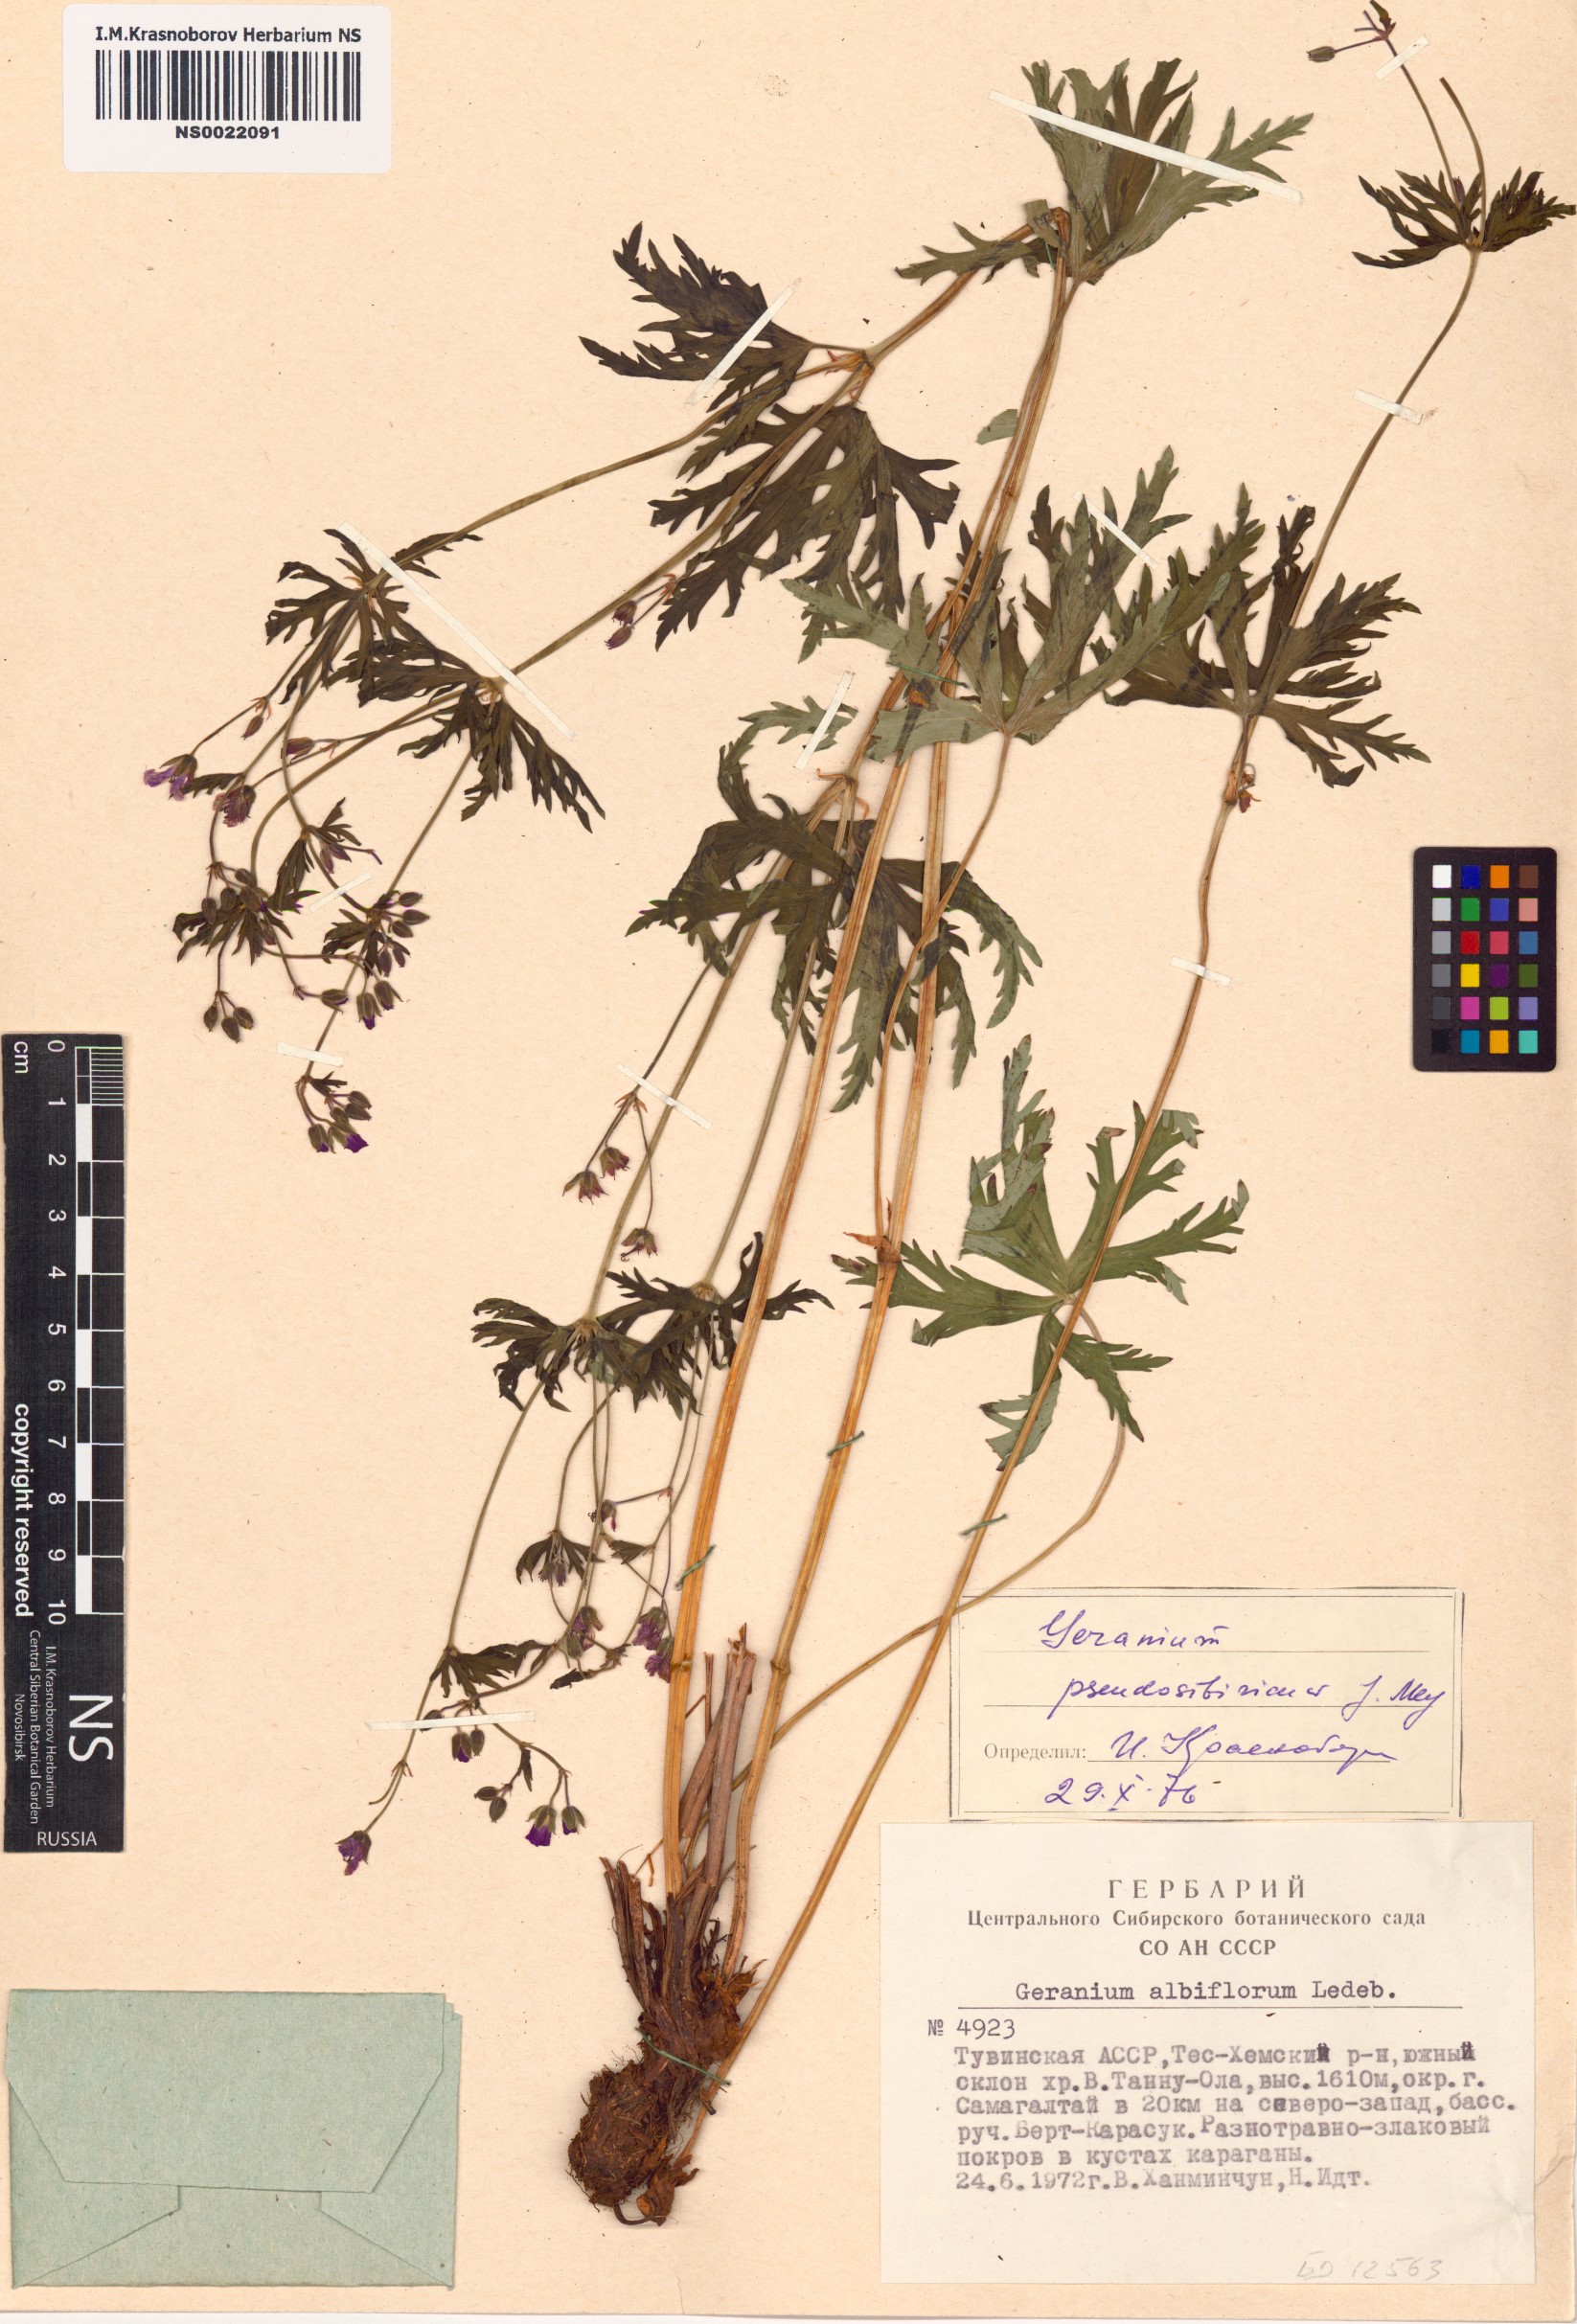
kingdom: Plantae
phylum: Tracheophyta
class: Magnoliopsida
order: Geraniales
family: Geraniaceae
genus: Geranium
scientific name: Geranium pseudosibiricum
